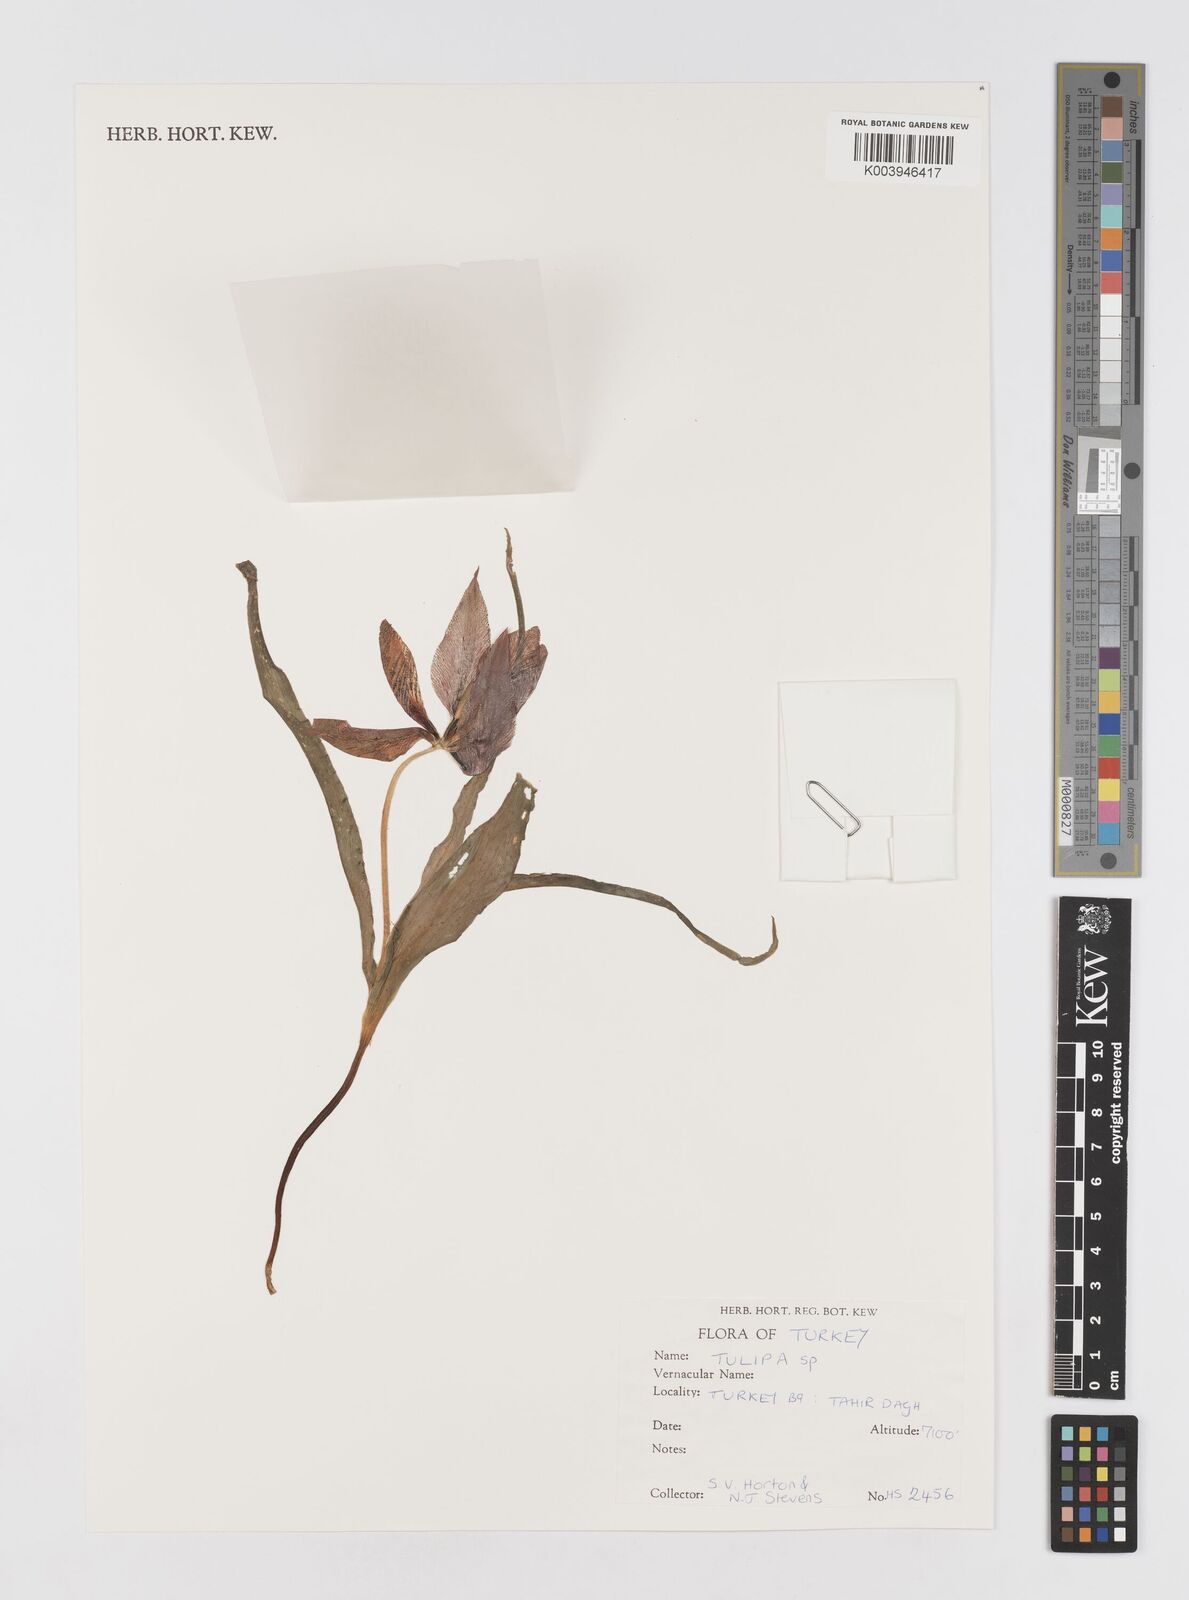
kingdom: Plantae
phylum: Tracheophyta
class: Liliopsida
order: Liliales
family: Liliaceae
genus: Tulipa
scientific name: Tulipa
